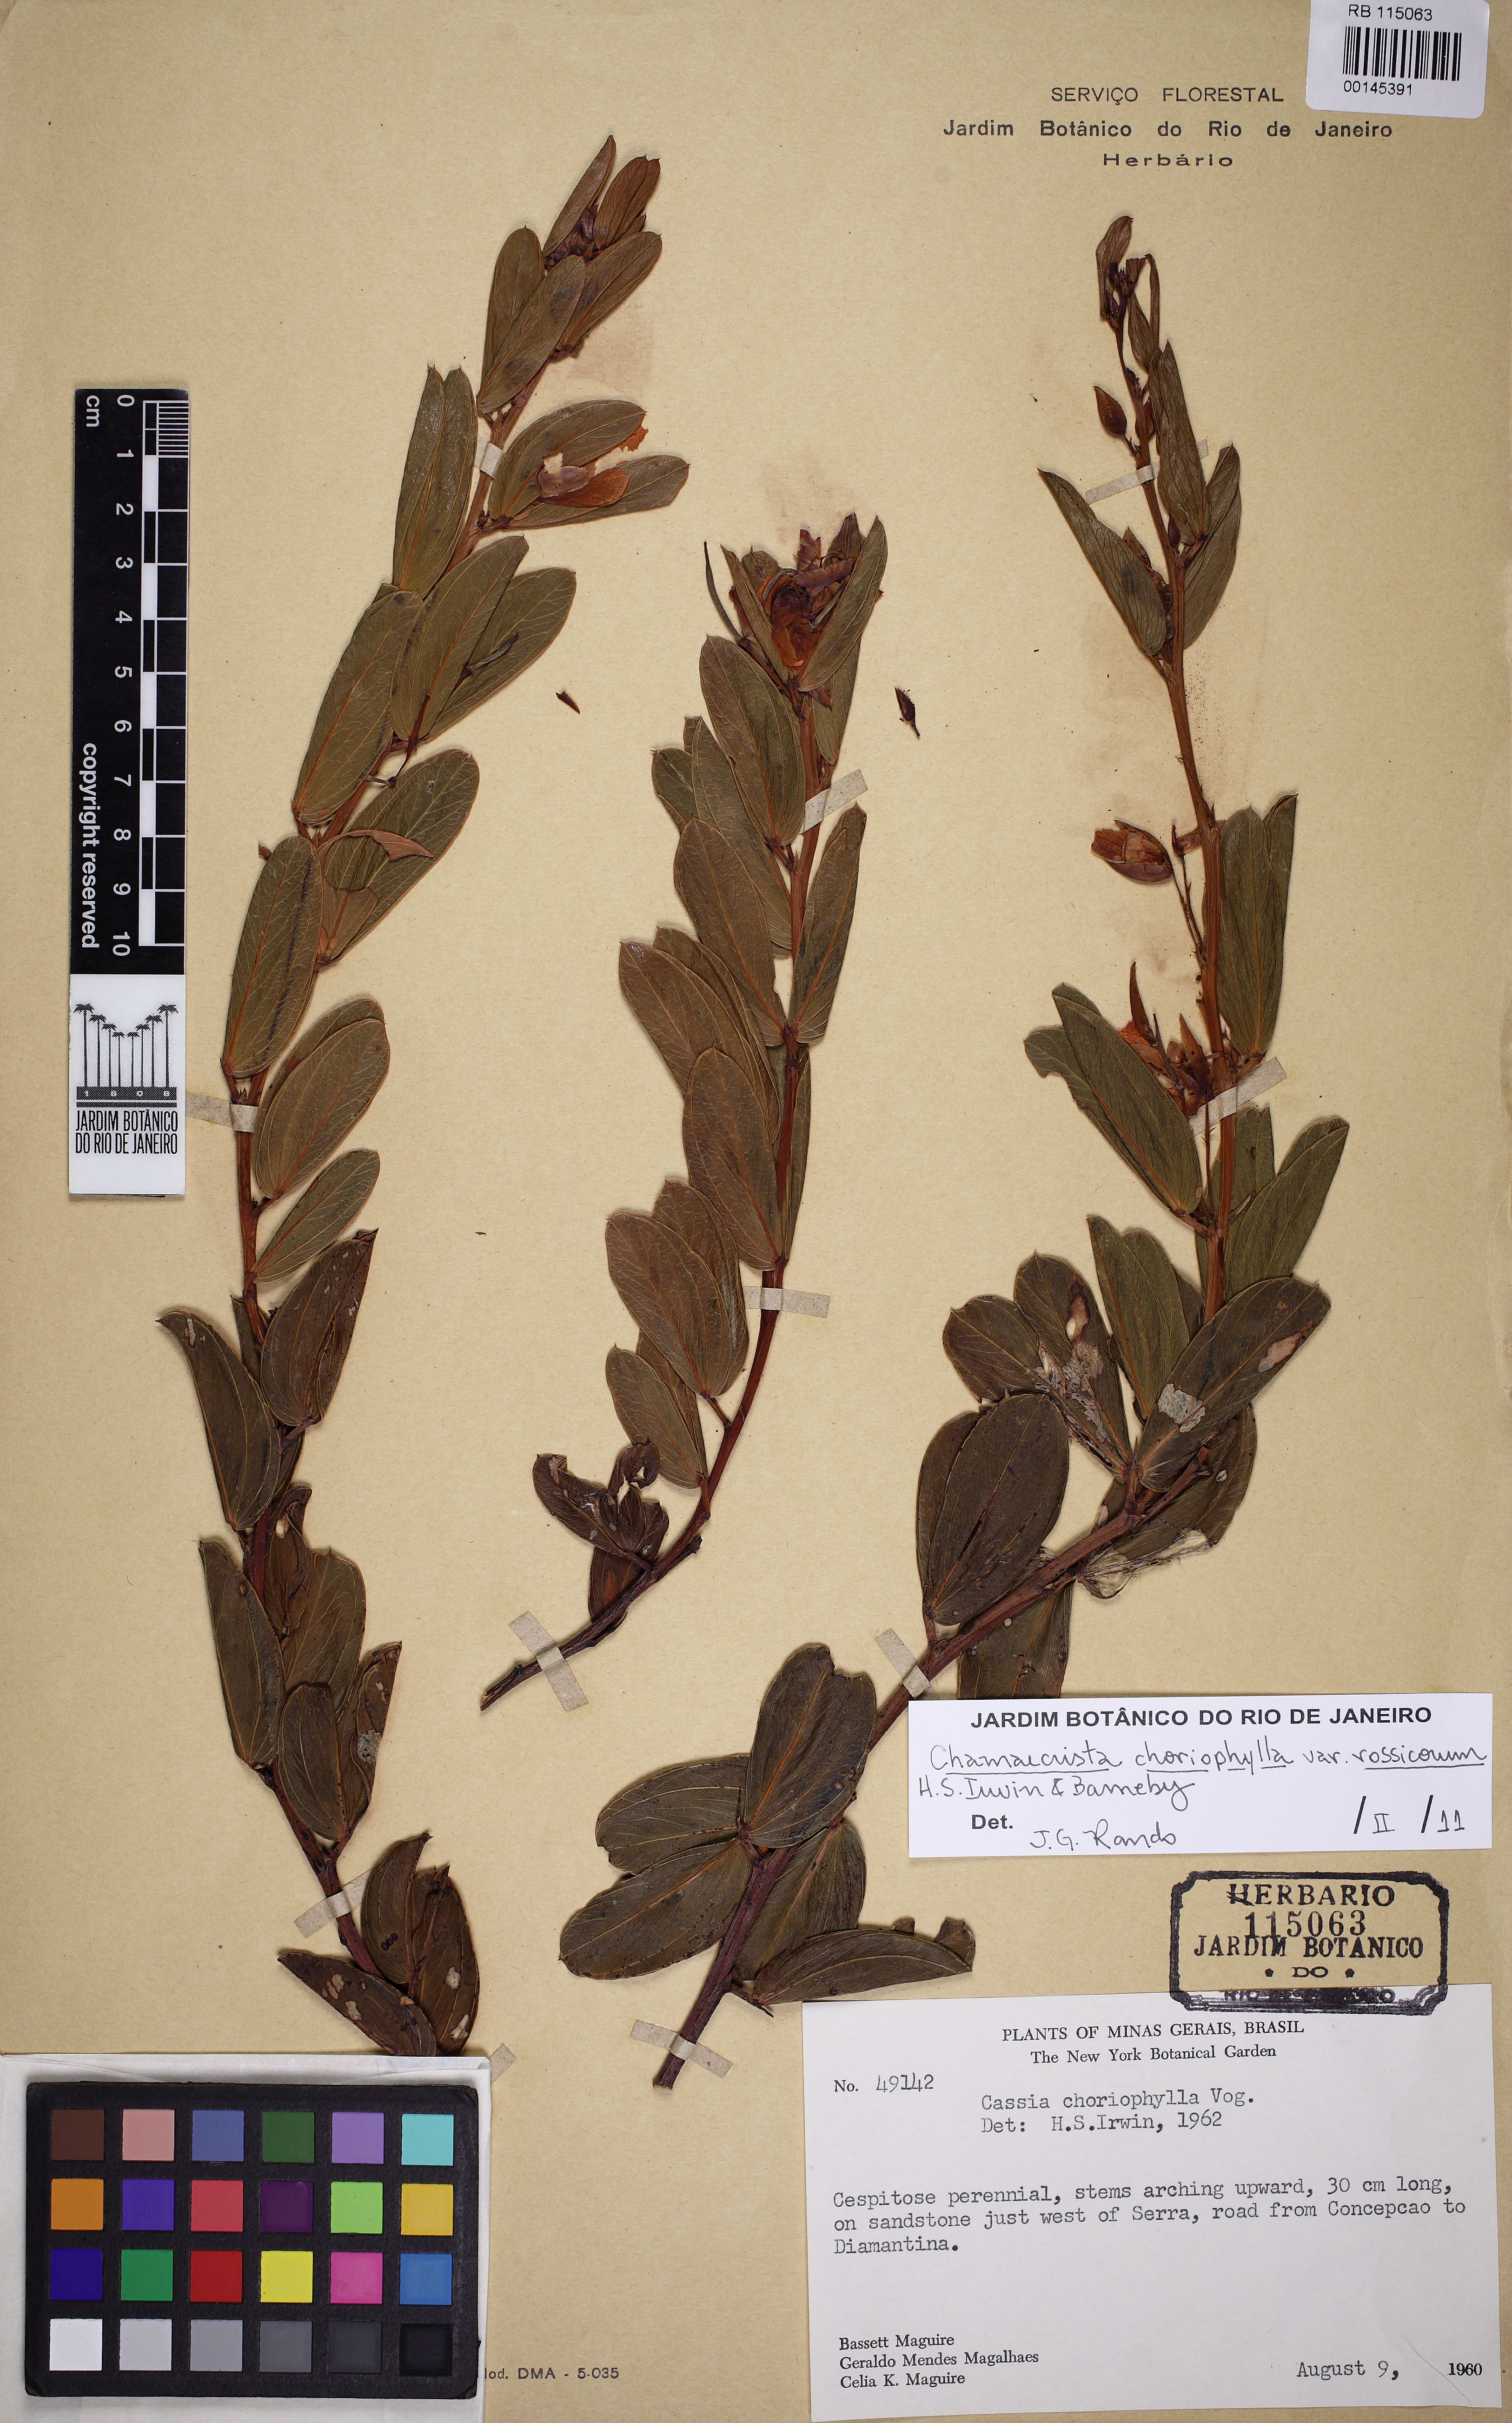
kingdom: Plantae
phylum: Tracheophyta
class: Magnoliopsida
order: Fabales
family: Fabaceae
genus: Chamaecrista
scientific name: Chamaecrista rossicorum
